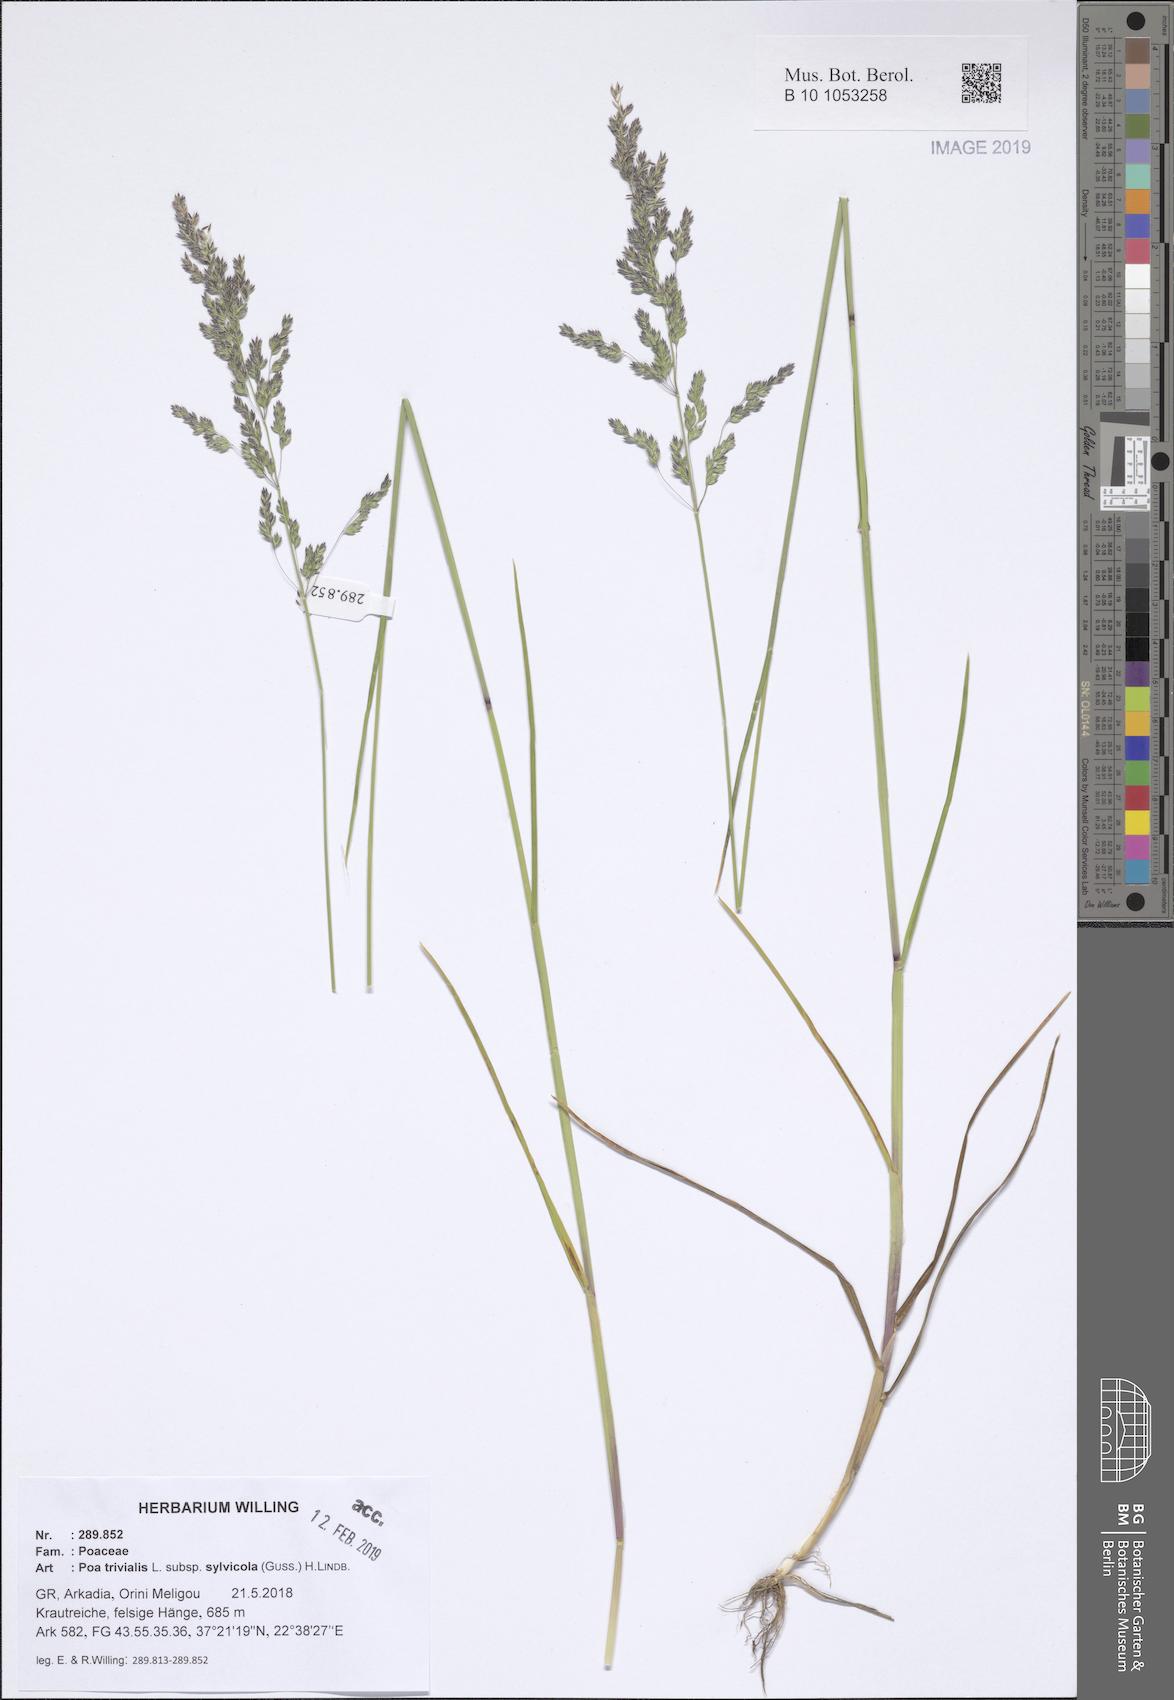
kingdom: Plantae
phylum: Tracheophyta
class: Liliopsida
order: Poales
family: Poaceae
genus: Poa
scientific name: Poa trivialis
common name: Rough bluegrass
